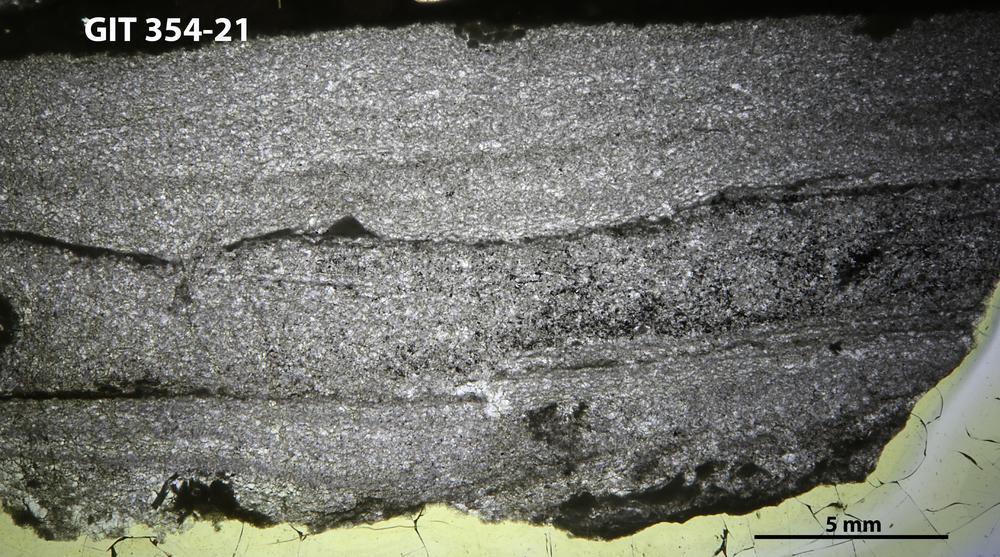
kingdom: Animalia
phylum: Porifera
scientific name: Porifera
